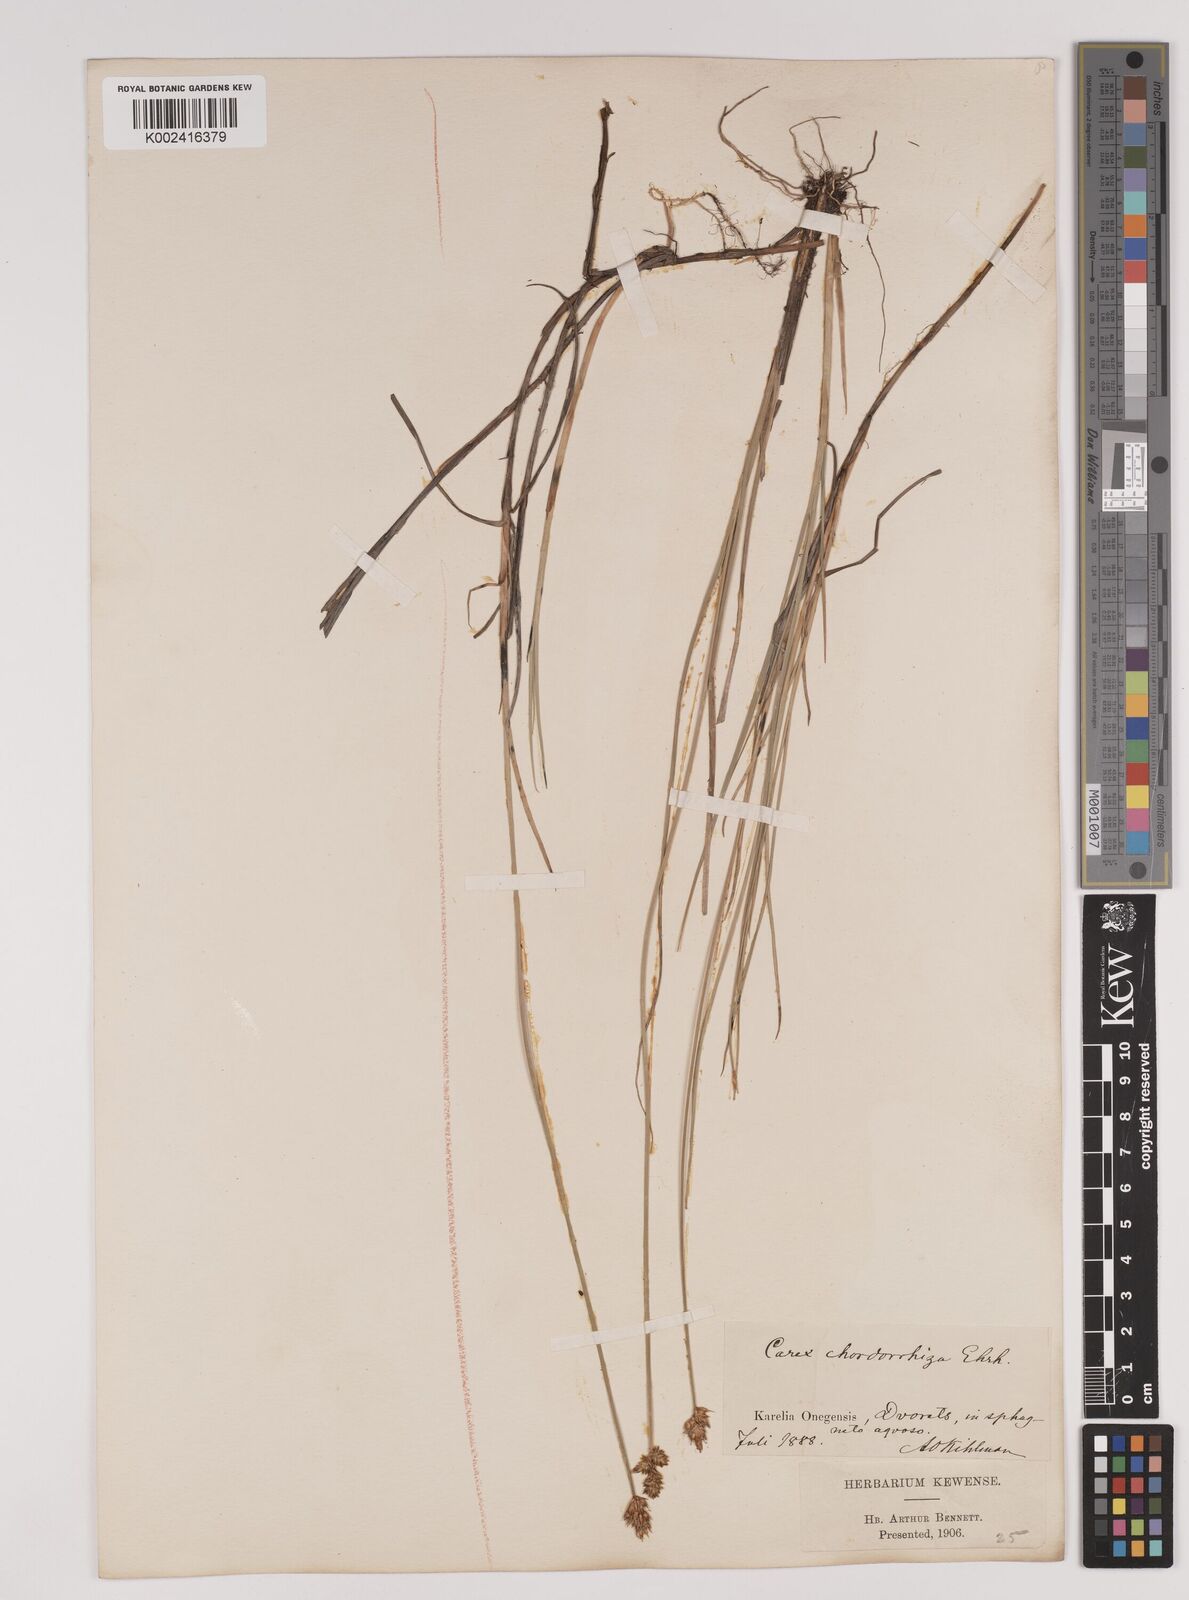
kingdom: Plantae
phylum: Tracheophyta
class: Liliopsida
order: Poales
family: Cyperaceae
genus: Carex
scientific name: Carex chordorrhiza
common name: String sedge
